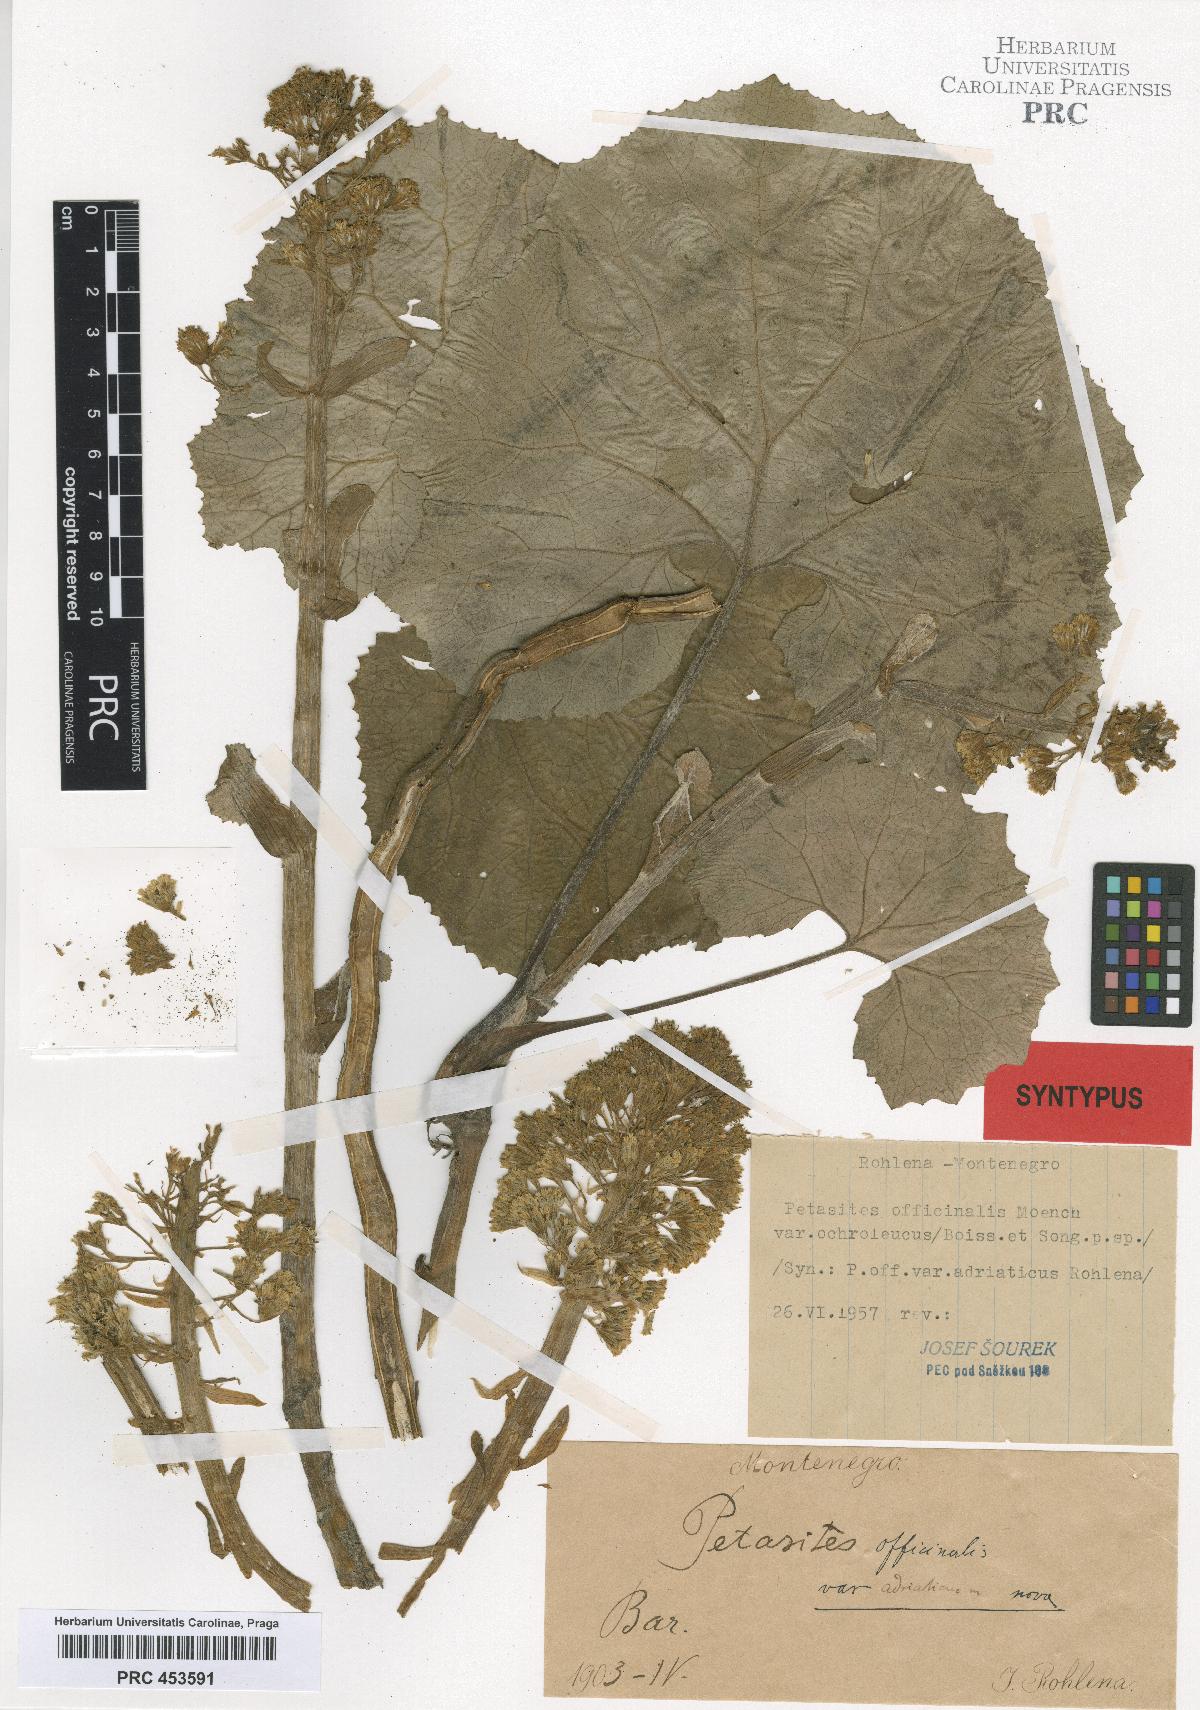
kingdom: Plantae
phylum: Tracheophyta
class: Magnoliopsida
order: Asterales
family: Asteraceae
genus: Petasites
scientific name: Petasites hybridus
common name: Butterbur
